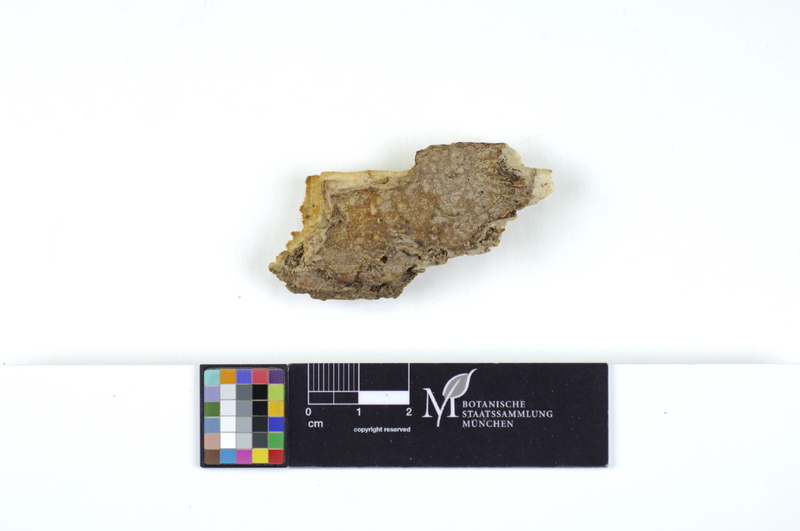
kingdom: Fungi
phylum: Basidiomycota
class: Agaricomycetes
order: Polyporales
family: Irpicaceae
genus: Ceriporia
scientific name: Ceriporia excelsa
